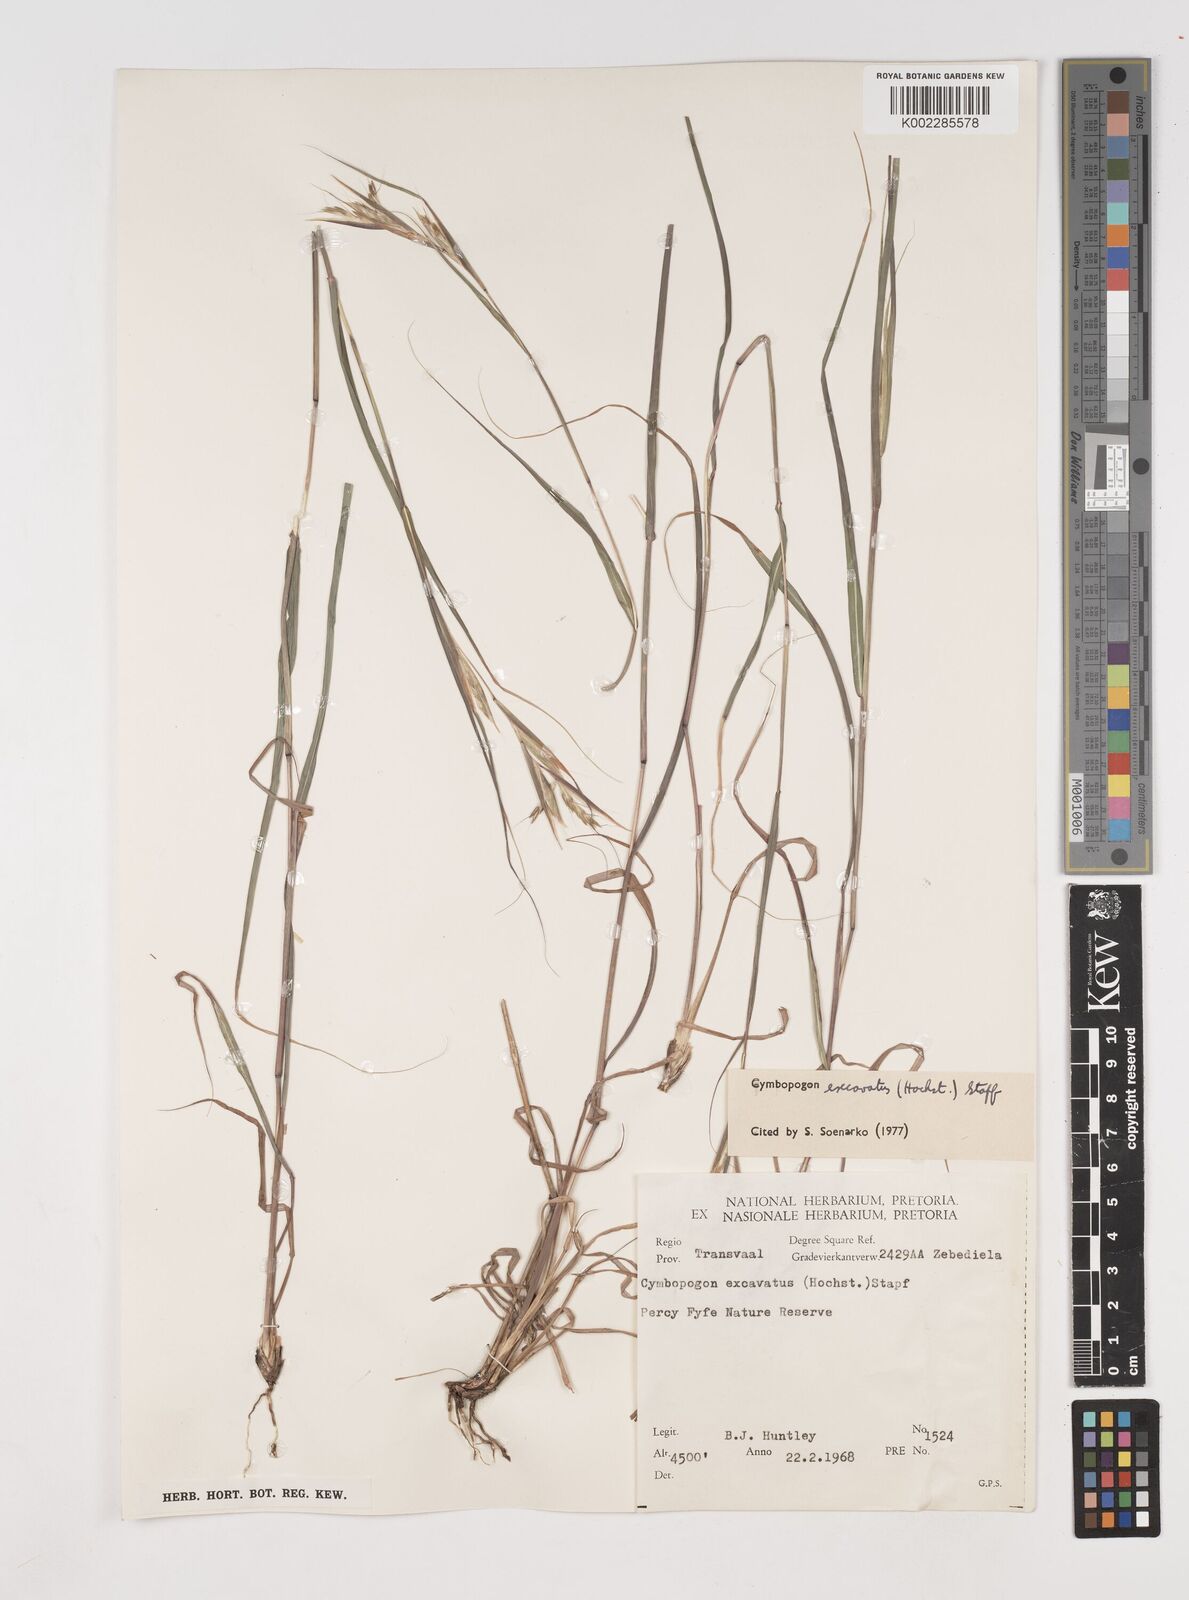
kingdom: Plantae
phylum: Tracheophyta
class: Liliopsida
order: Poales
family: Poaceae
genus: Cymbopogon
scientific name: Cymbopogon caesius
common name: Kachi grass
